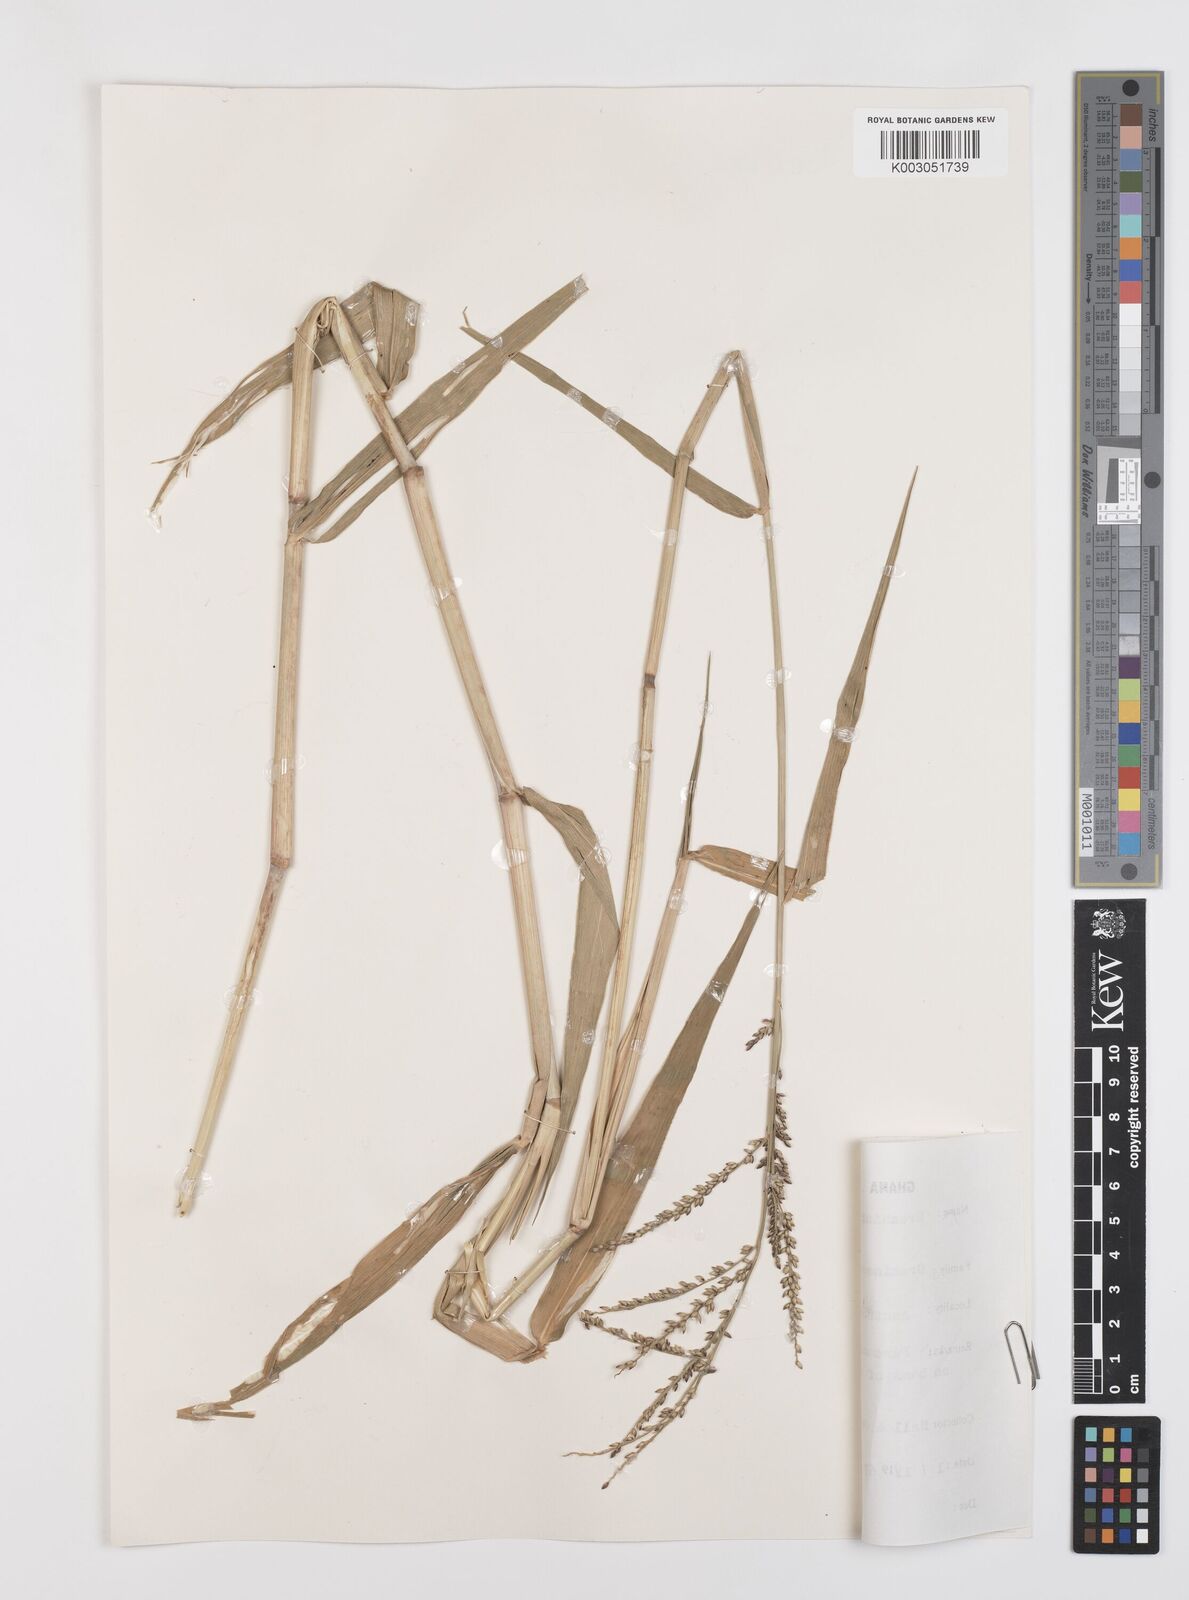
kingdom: Plantae
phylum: Tracheophyta
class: Liliopsida
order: Poales
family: Poaceae
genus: Urochloa
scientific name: Urochloa mutica
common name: Para grass
